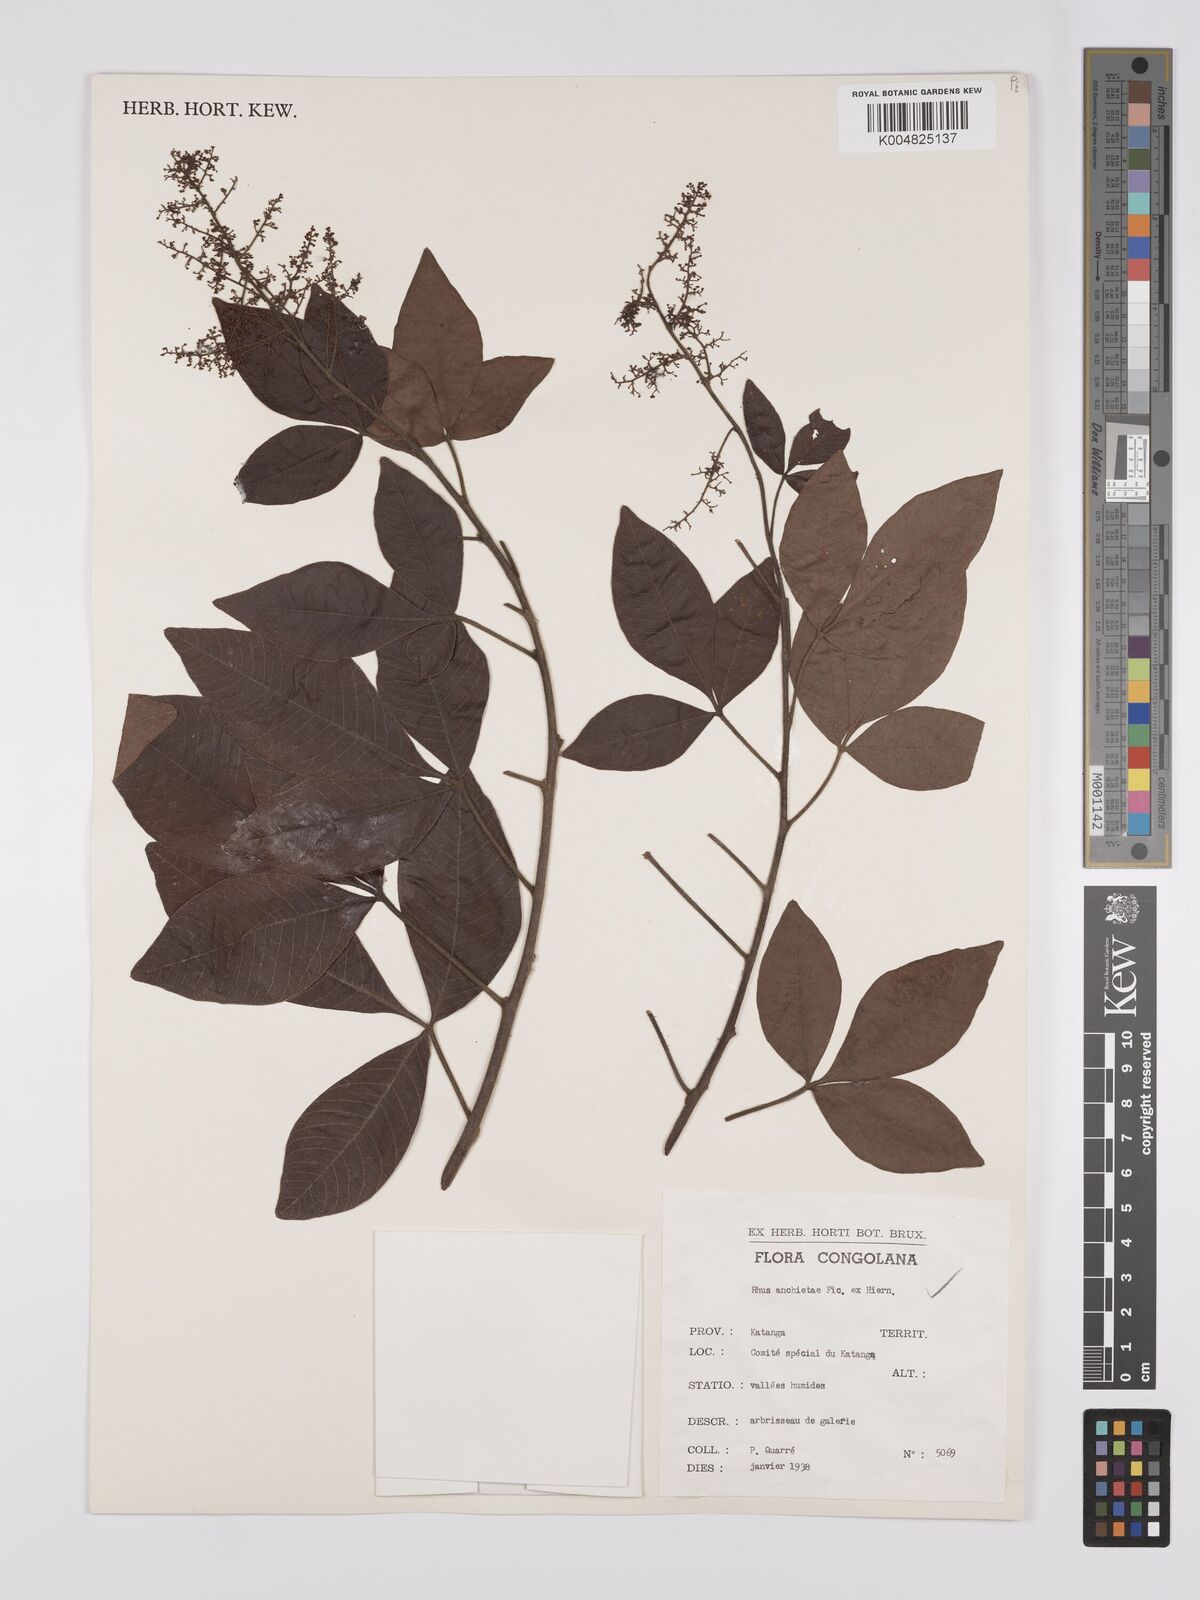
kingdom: Plantae
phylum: Tracheophyta
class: Magnoliopsida
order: Sapindales
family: Anacardiaceae
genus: Searsia
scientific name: Searsia anchietae
